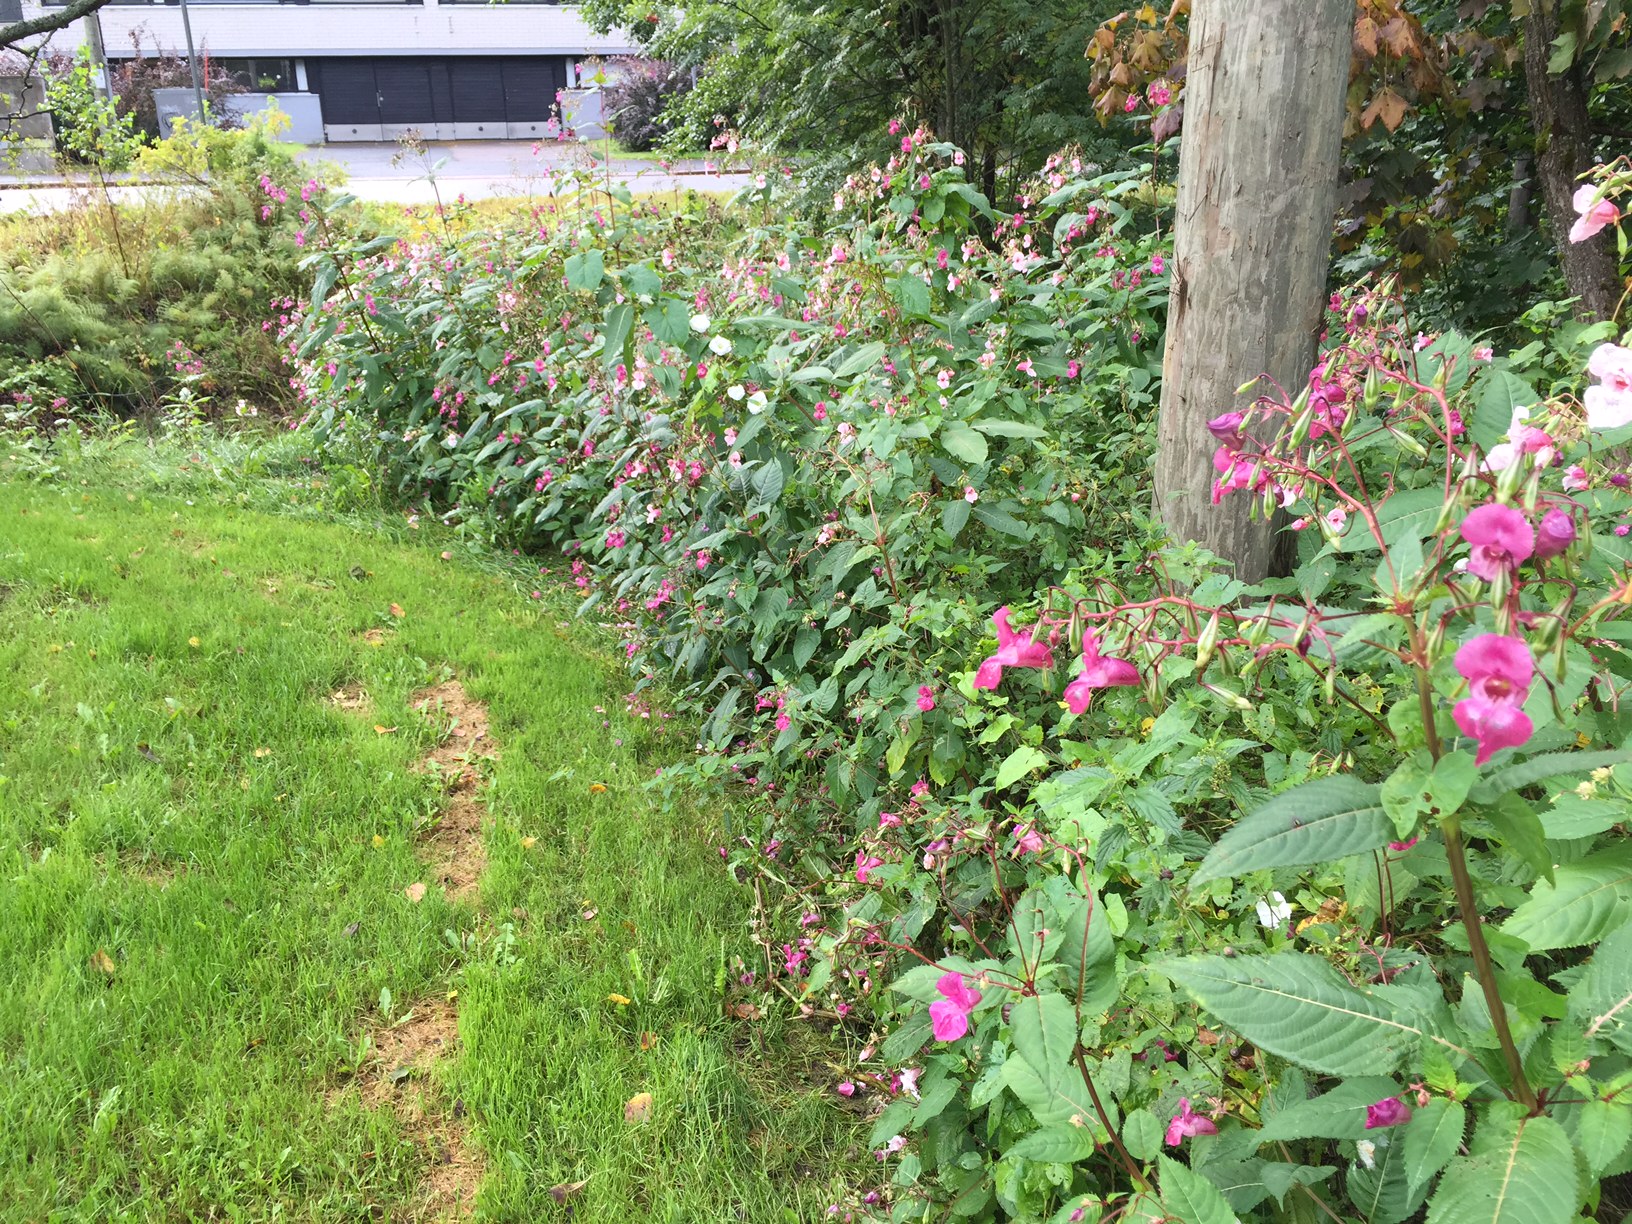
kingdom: Plantae
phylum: Tracheophyta
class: Magnoliopsida
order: Ericales
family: Balsaminaceae
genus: Impatiens
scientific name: Impatiens glandulifera
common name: Himalayan balsam
